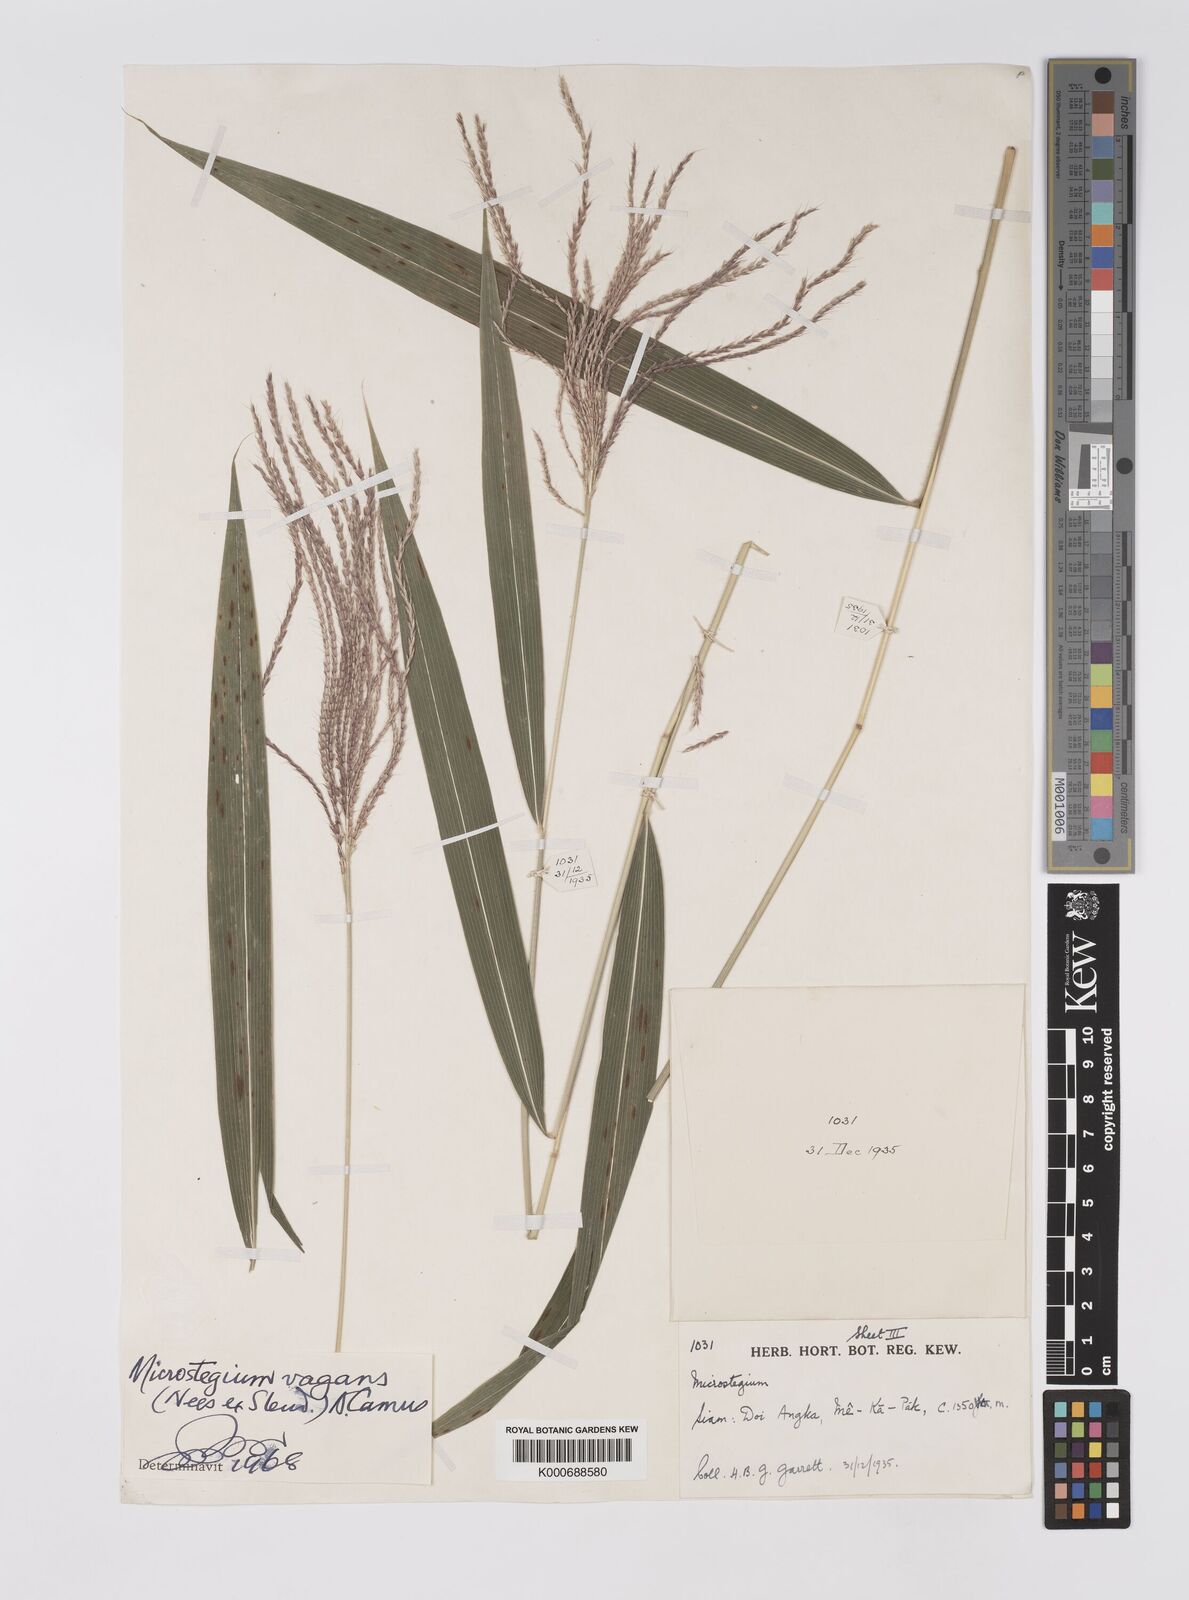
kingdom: Plantae
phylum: Tracheophyta
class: Liliopsida
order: Poales
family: Poaceae
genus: Microstegium
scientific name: Microstegium fasciculatum
